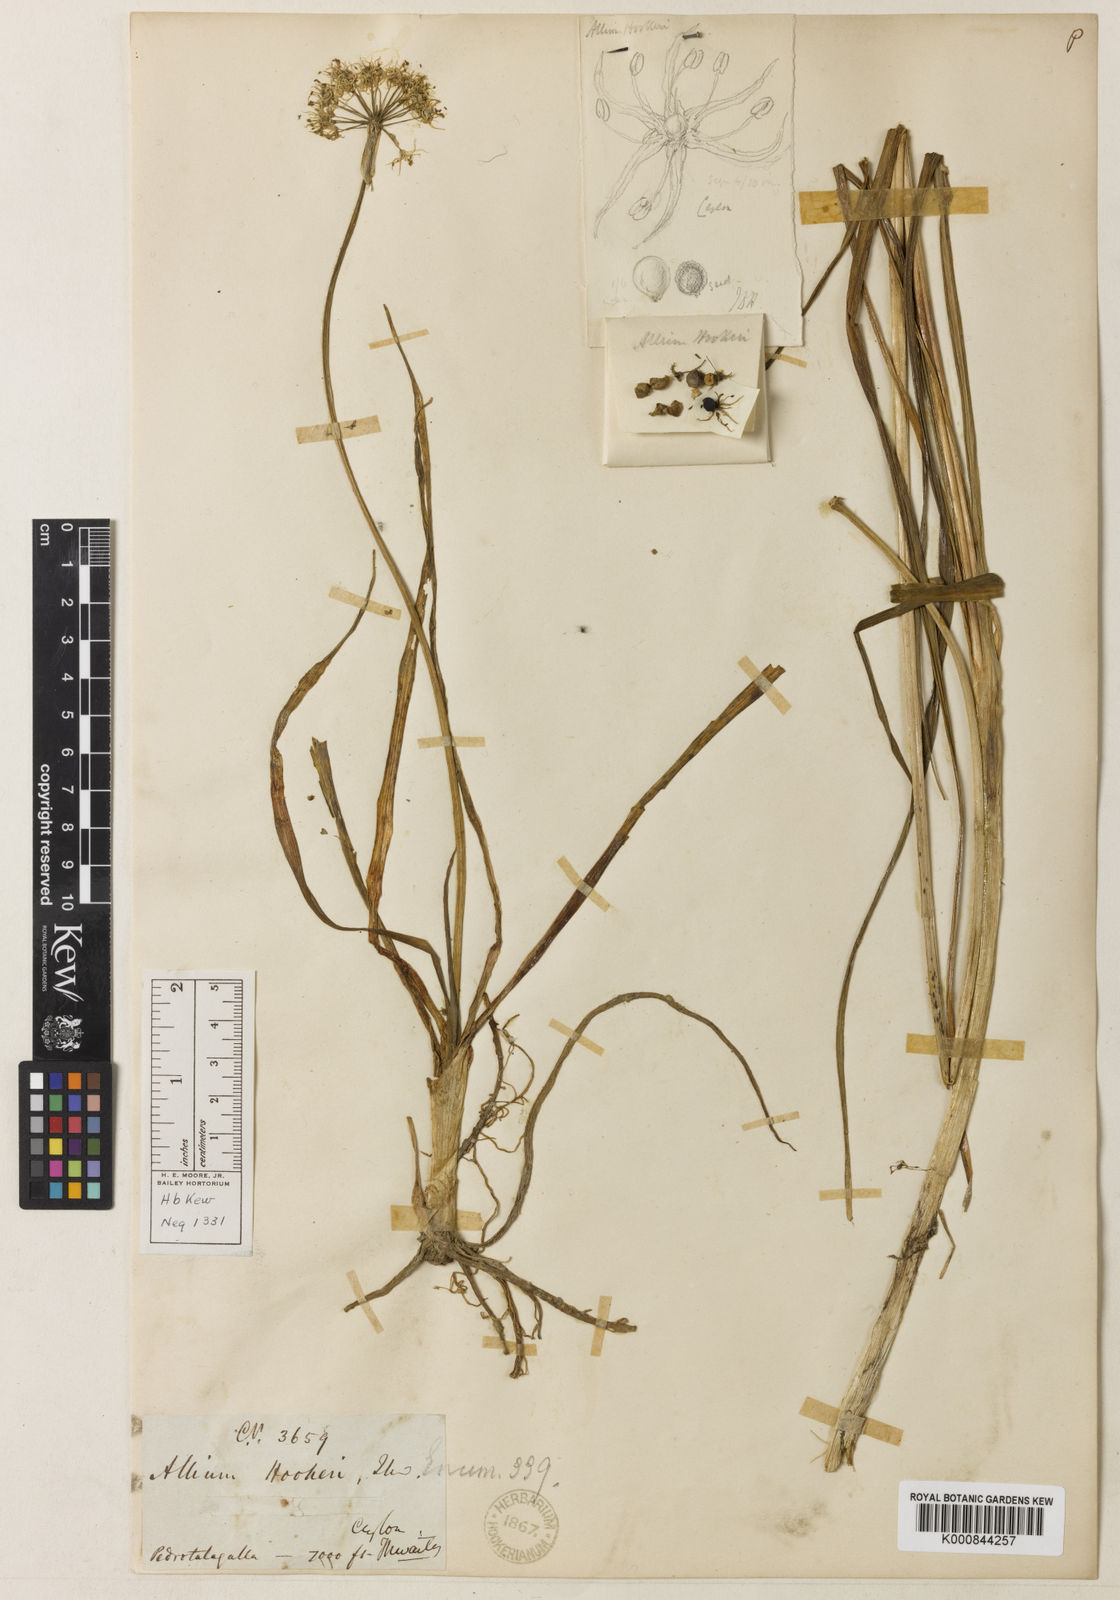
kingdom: Plantae
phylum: Tracheophyta
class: Liliopsida
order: Asparagales
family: Amaryllidaceae
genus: Allium
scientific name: Allium hookeri
